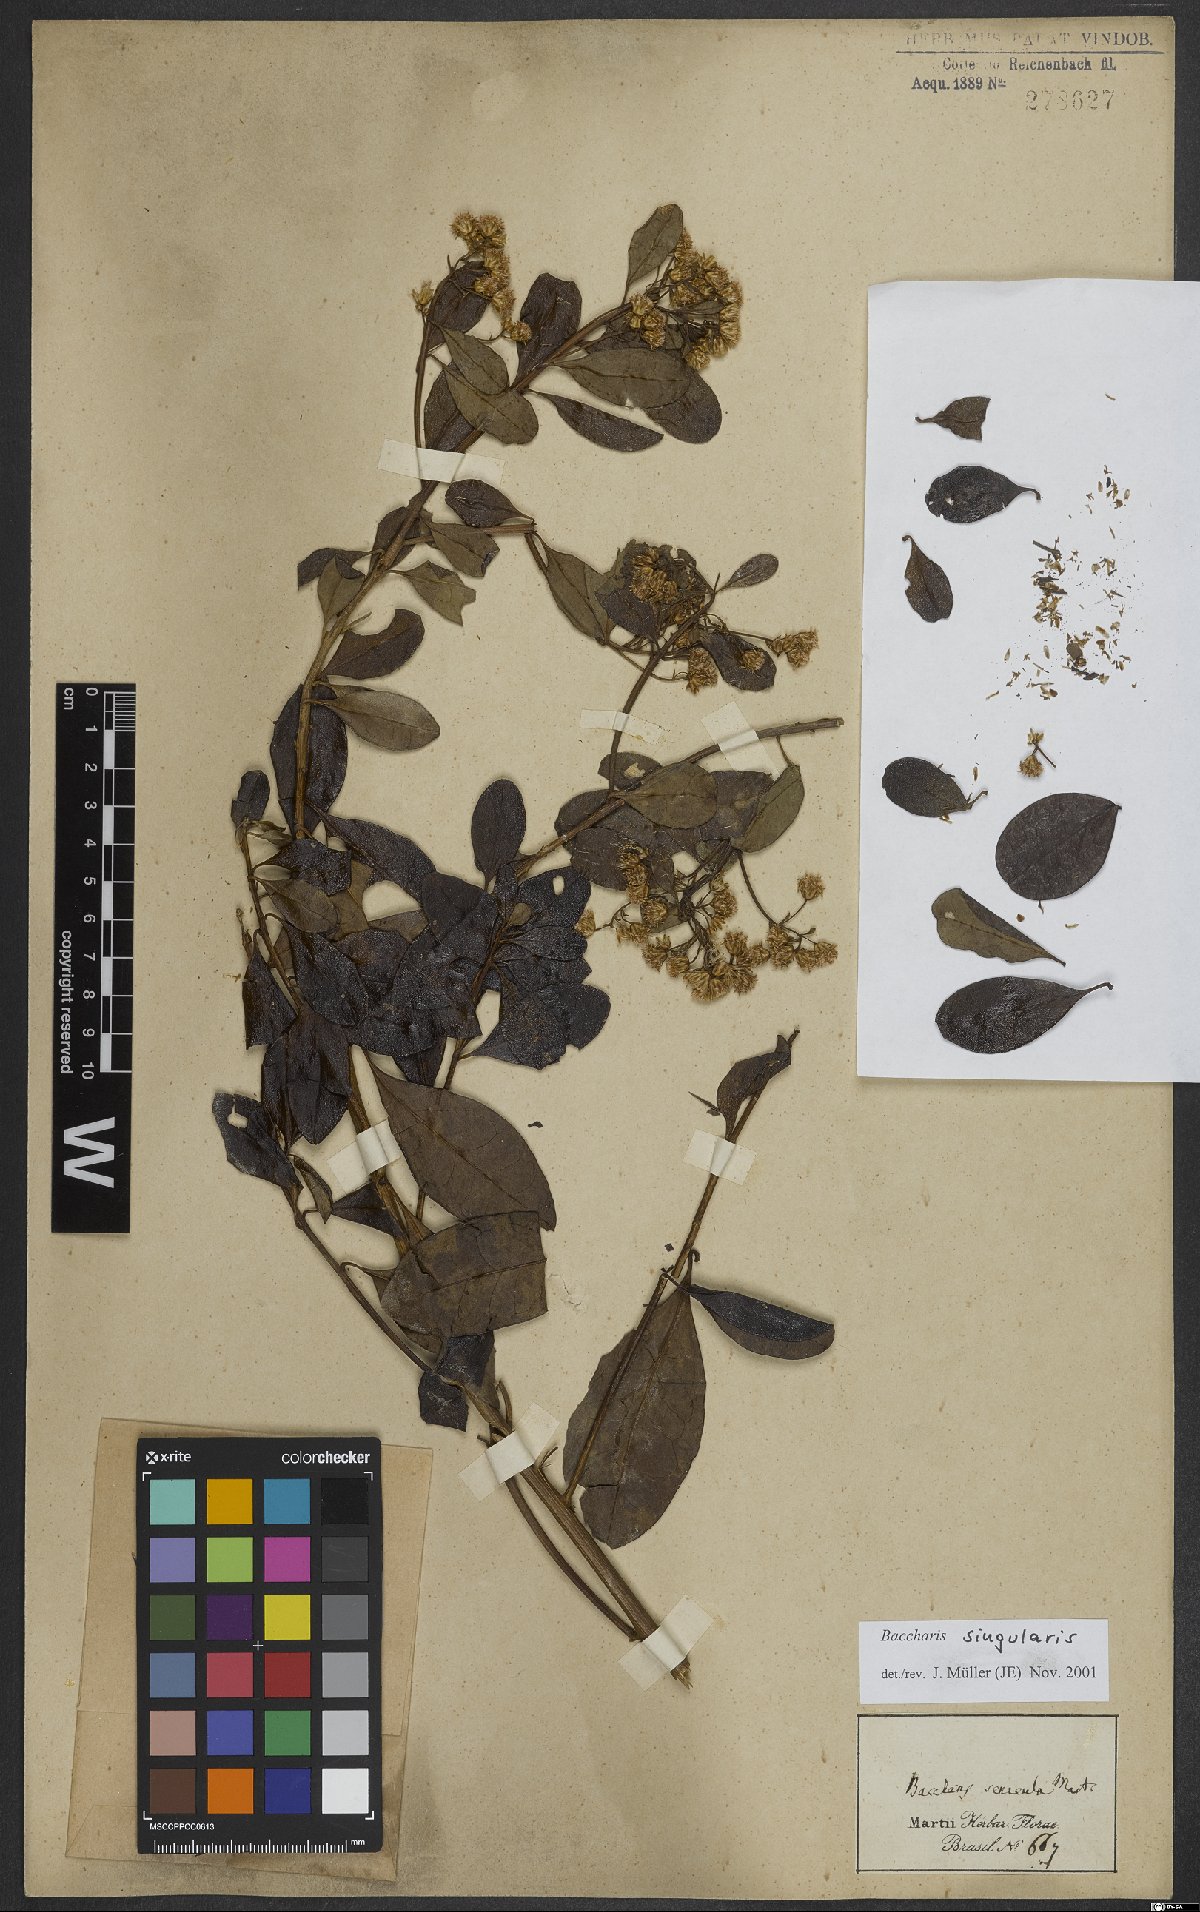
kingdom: Plantae
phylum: Tracheophyta
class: Magnoliopsida
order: Asterales
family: Asteraceae
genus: Baccharis
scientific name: Baccharis singularis
